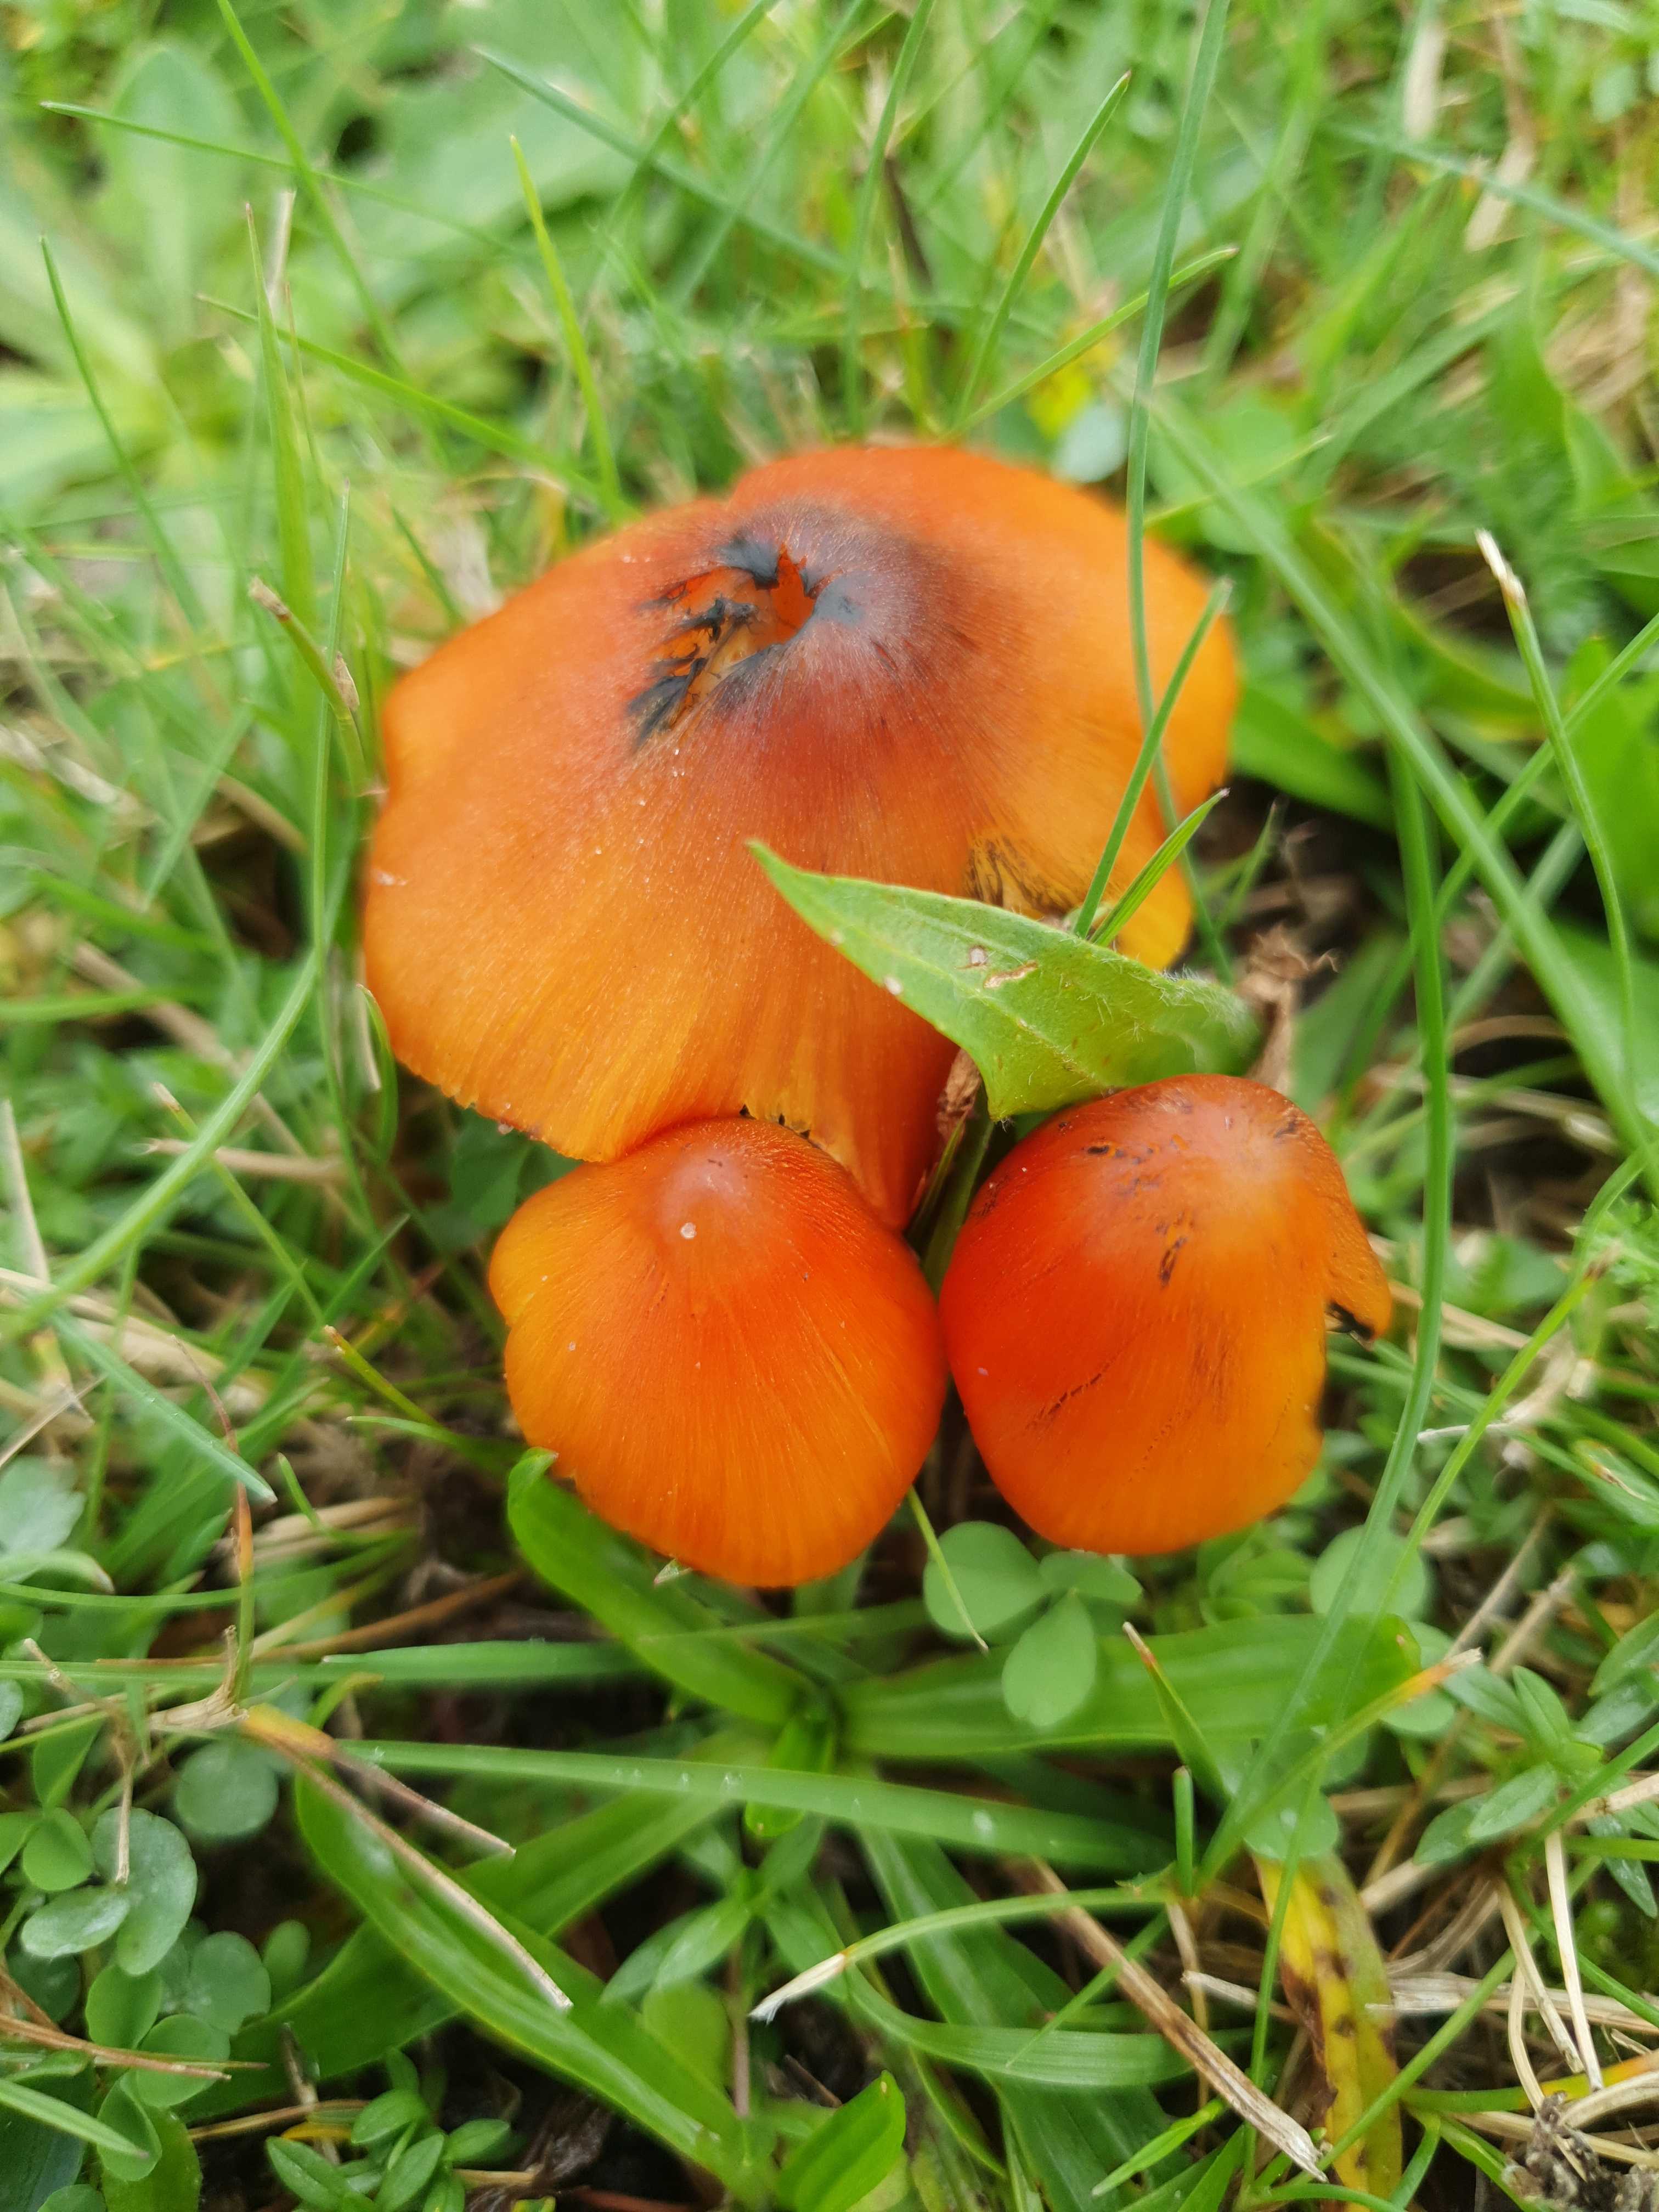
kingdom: Fungi
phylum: Basidiomycota
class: Agaricomycetes
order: Agaricales
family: Hygrophoraceae
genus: Hygrocybe
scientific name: Hygrocybe conica
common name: kegle-vokshat
